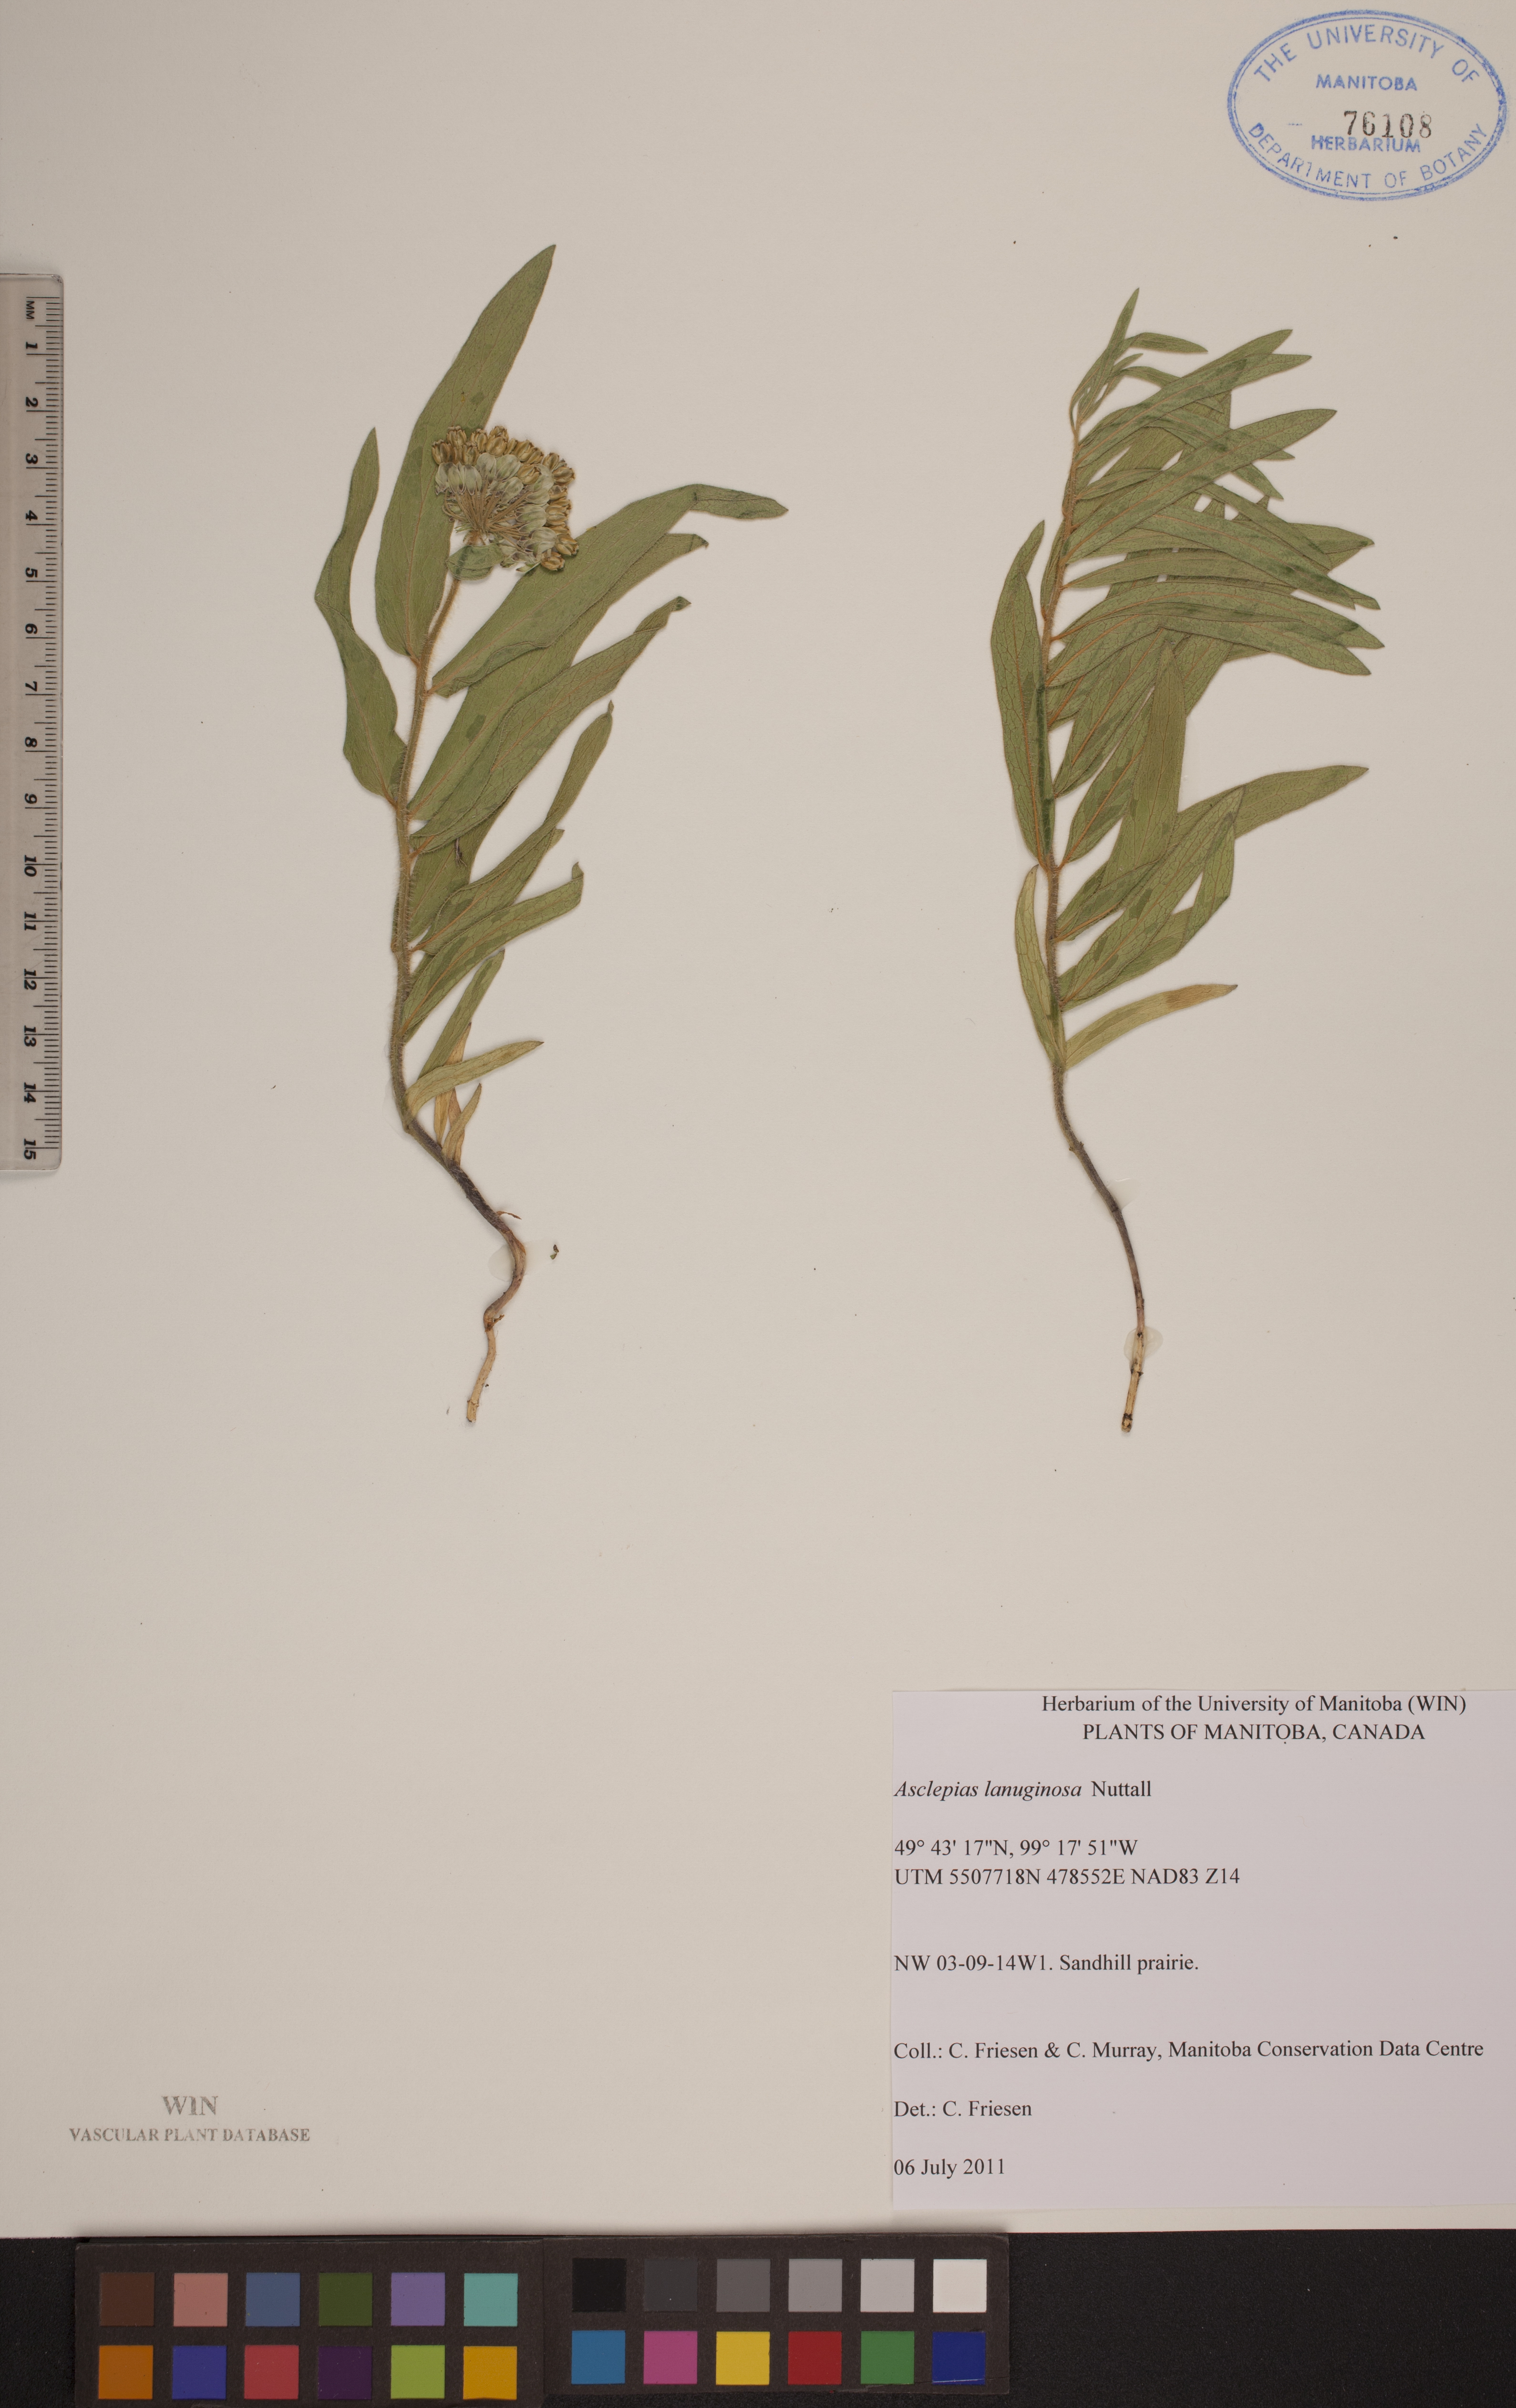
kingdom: Plantae
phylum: Tracheophyta
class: Magnoliopsida
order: Gentianales
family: Apocynaceae
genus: Asclepias
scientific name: Asclepias lanuginosa
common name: Side-cluster milkweed
